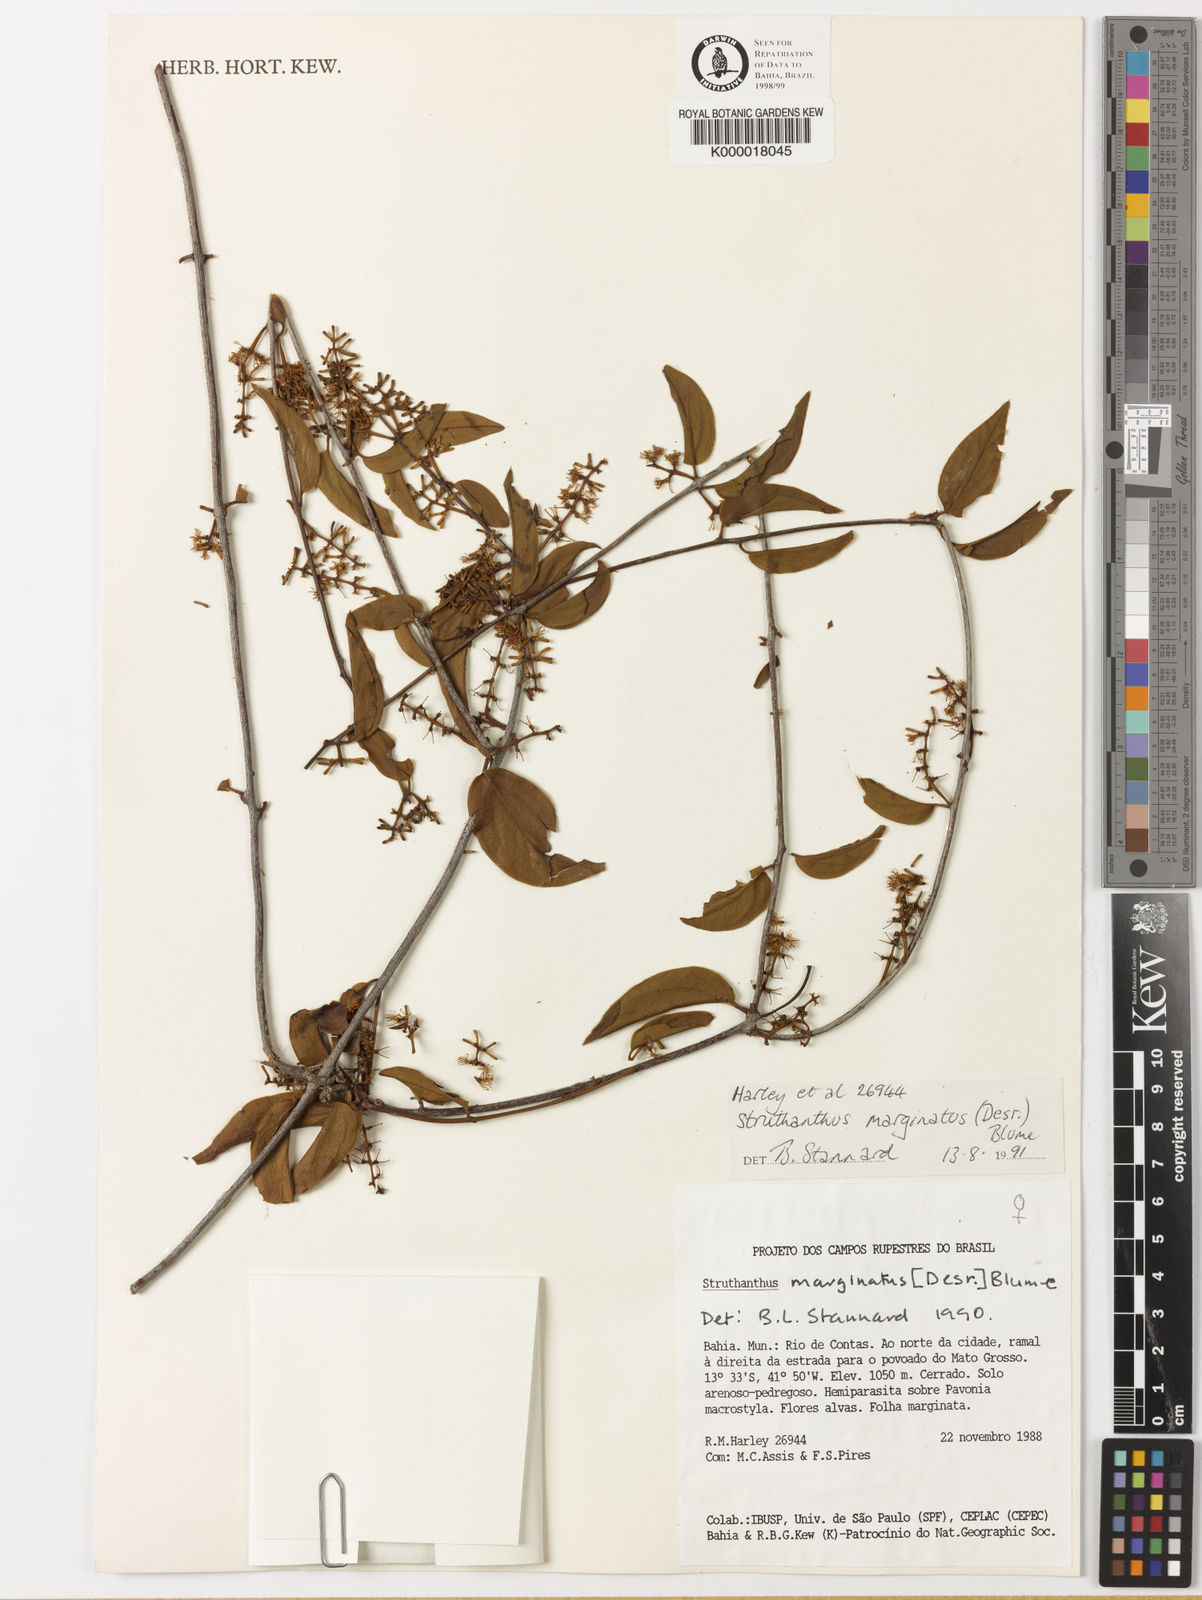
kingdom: Plantae
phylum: Tracheophyta
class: Magnoliopsida
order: Santalales
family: Loranthaceae
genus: Struthanthus
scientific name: Struthanthus
